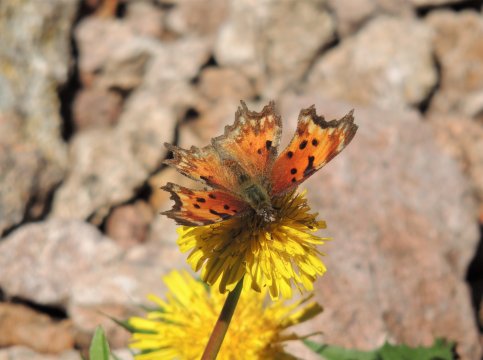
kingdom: Animalia
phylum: Arthropoda
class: Insecta
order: Lepidoptera
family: Nymphalidae
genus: Polygonia
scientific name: Polygonia gracilis
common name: Hoary Comma
